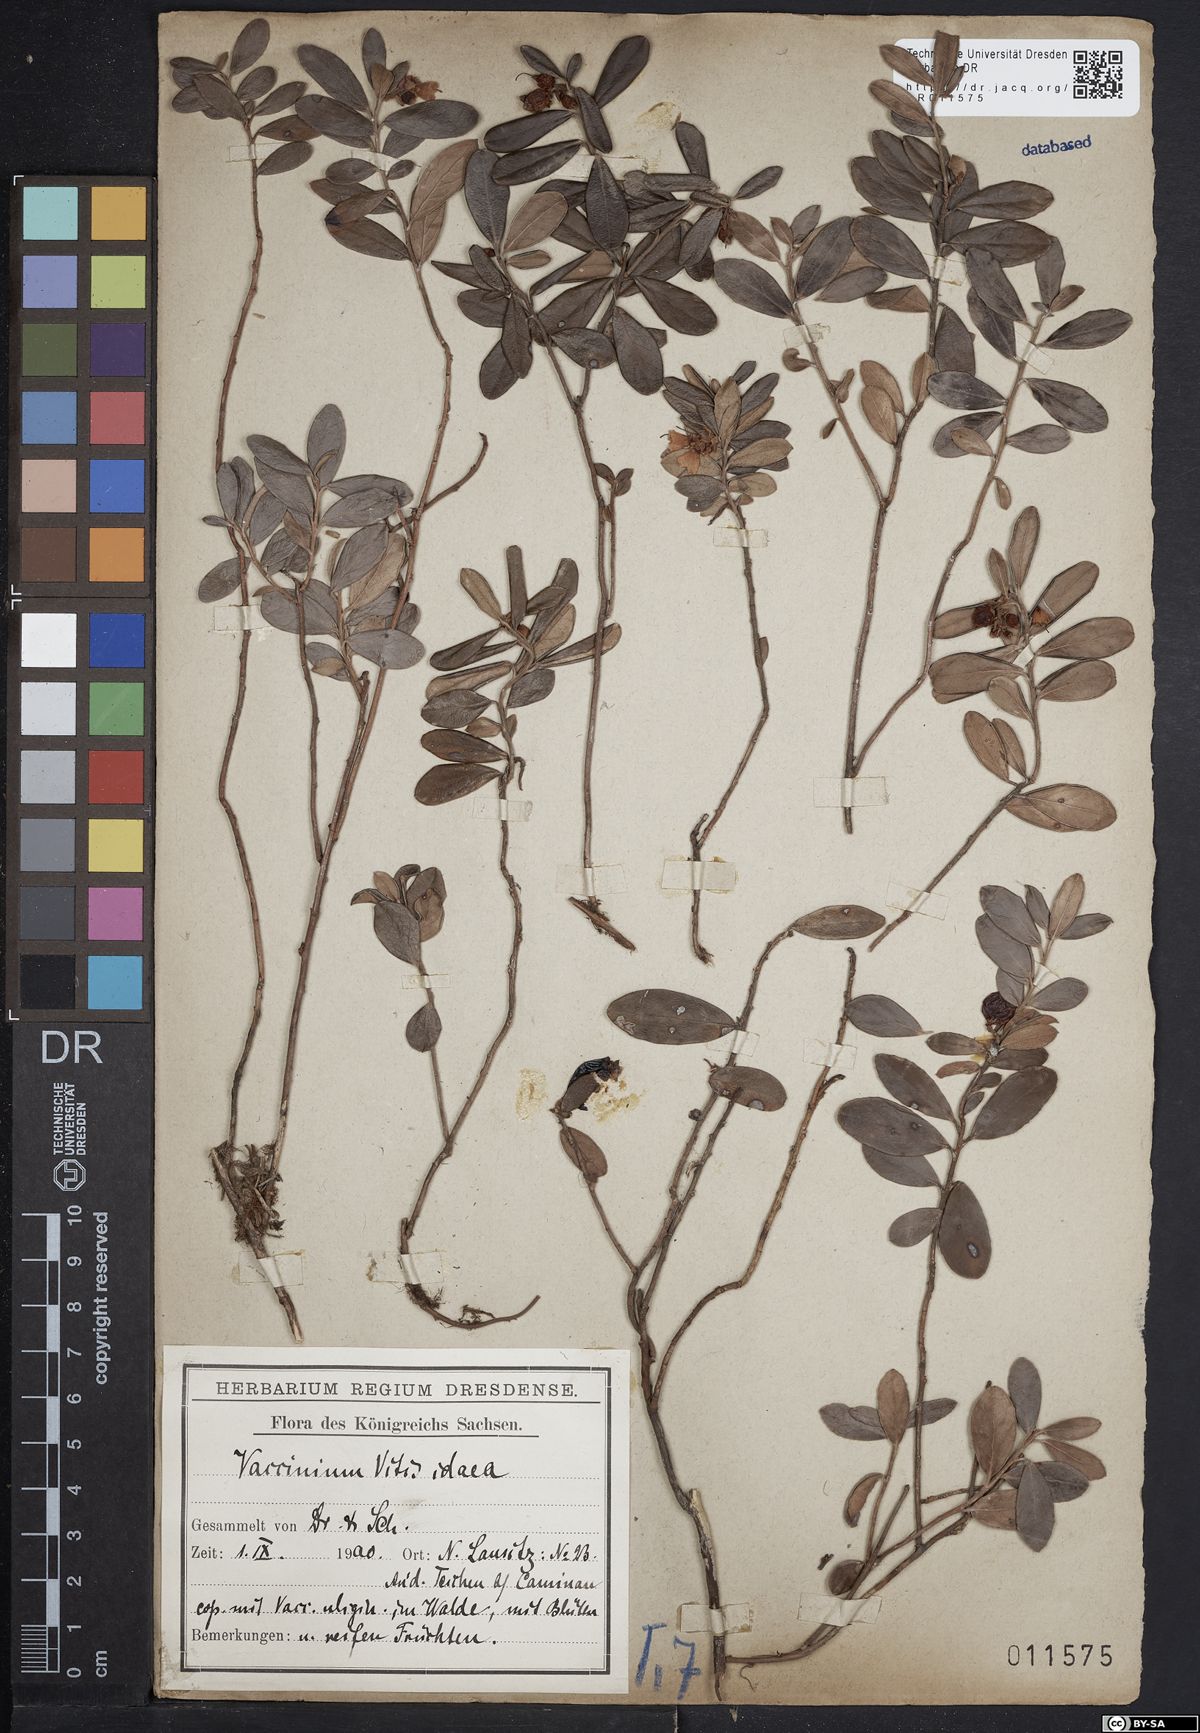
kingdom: Plantae
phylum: Tracheophyta
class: Magnoliopsida
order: Ericales
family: Ericaceae
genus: Vaccinium
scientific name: Vaccinium vitis-idaea
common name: Cowberry
